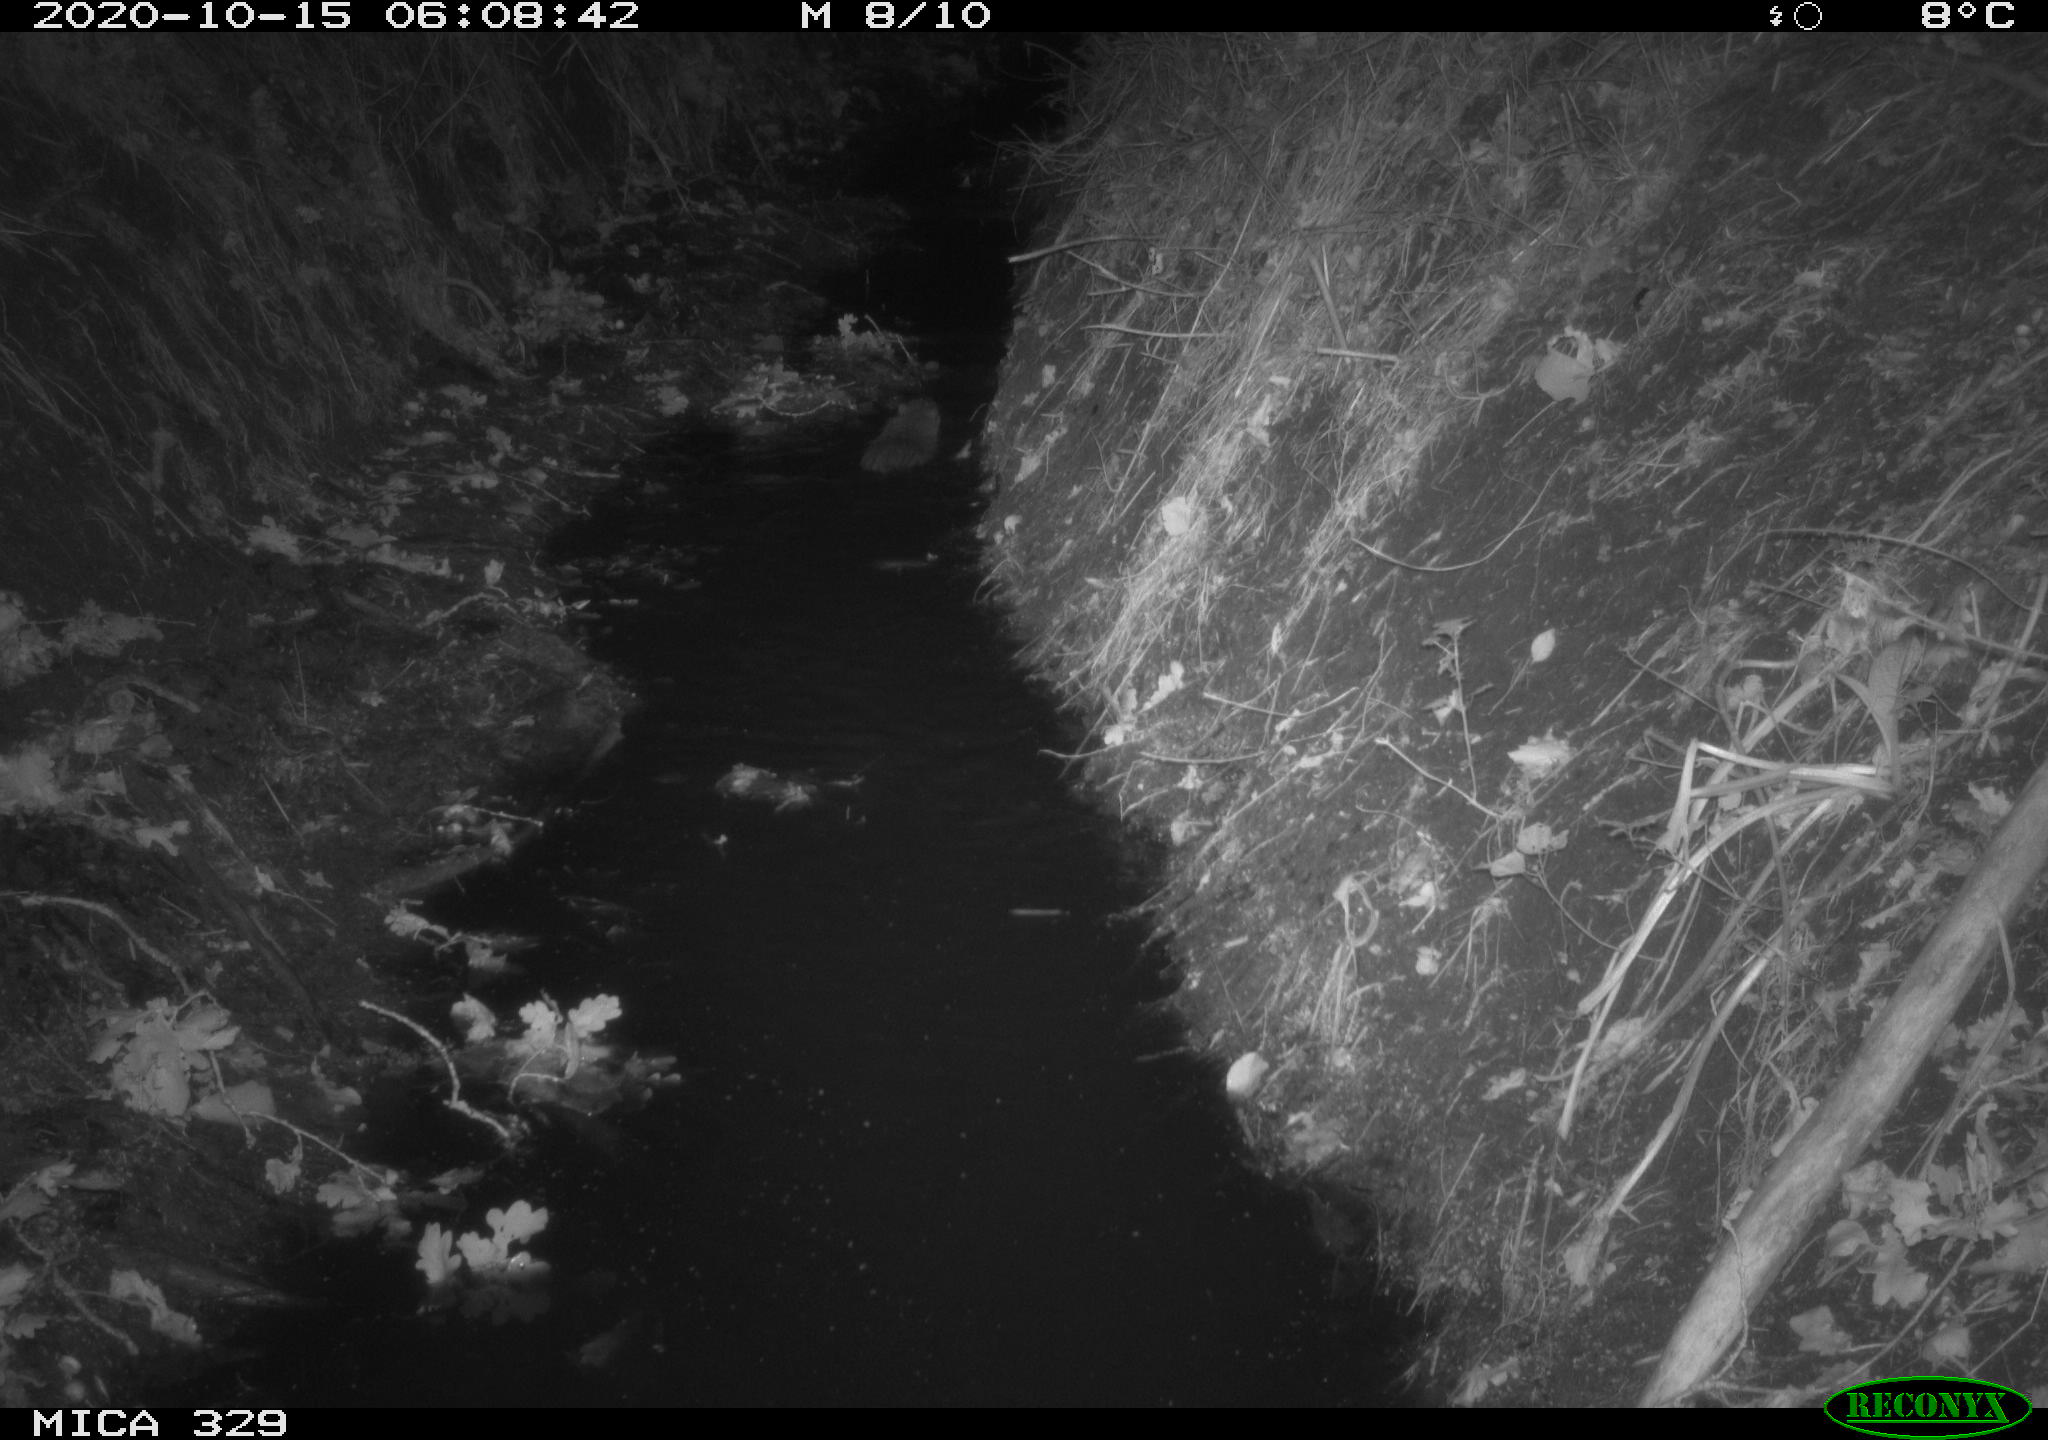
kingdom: Animalia
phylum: Chordata
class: Mammalia
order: Rodentia
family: Myocastoridae
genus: Myocastor
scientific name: Myocastor coypus
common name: Coypu
